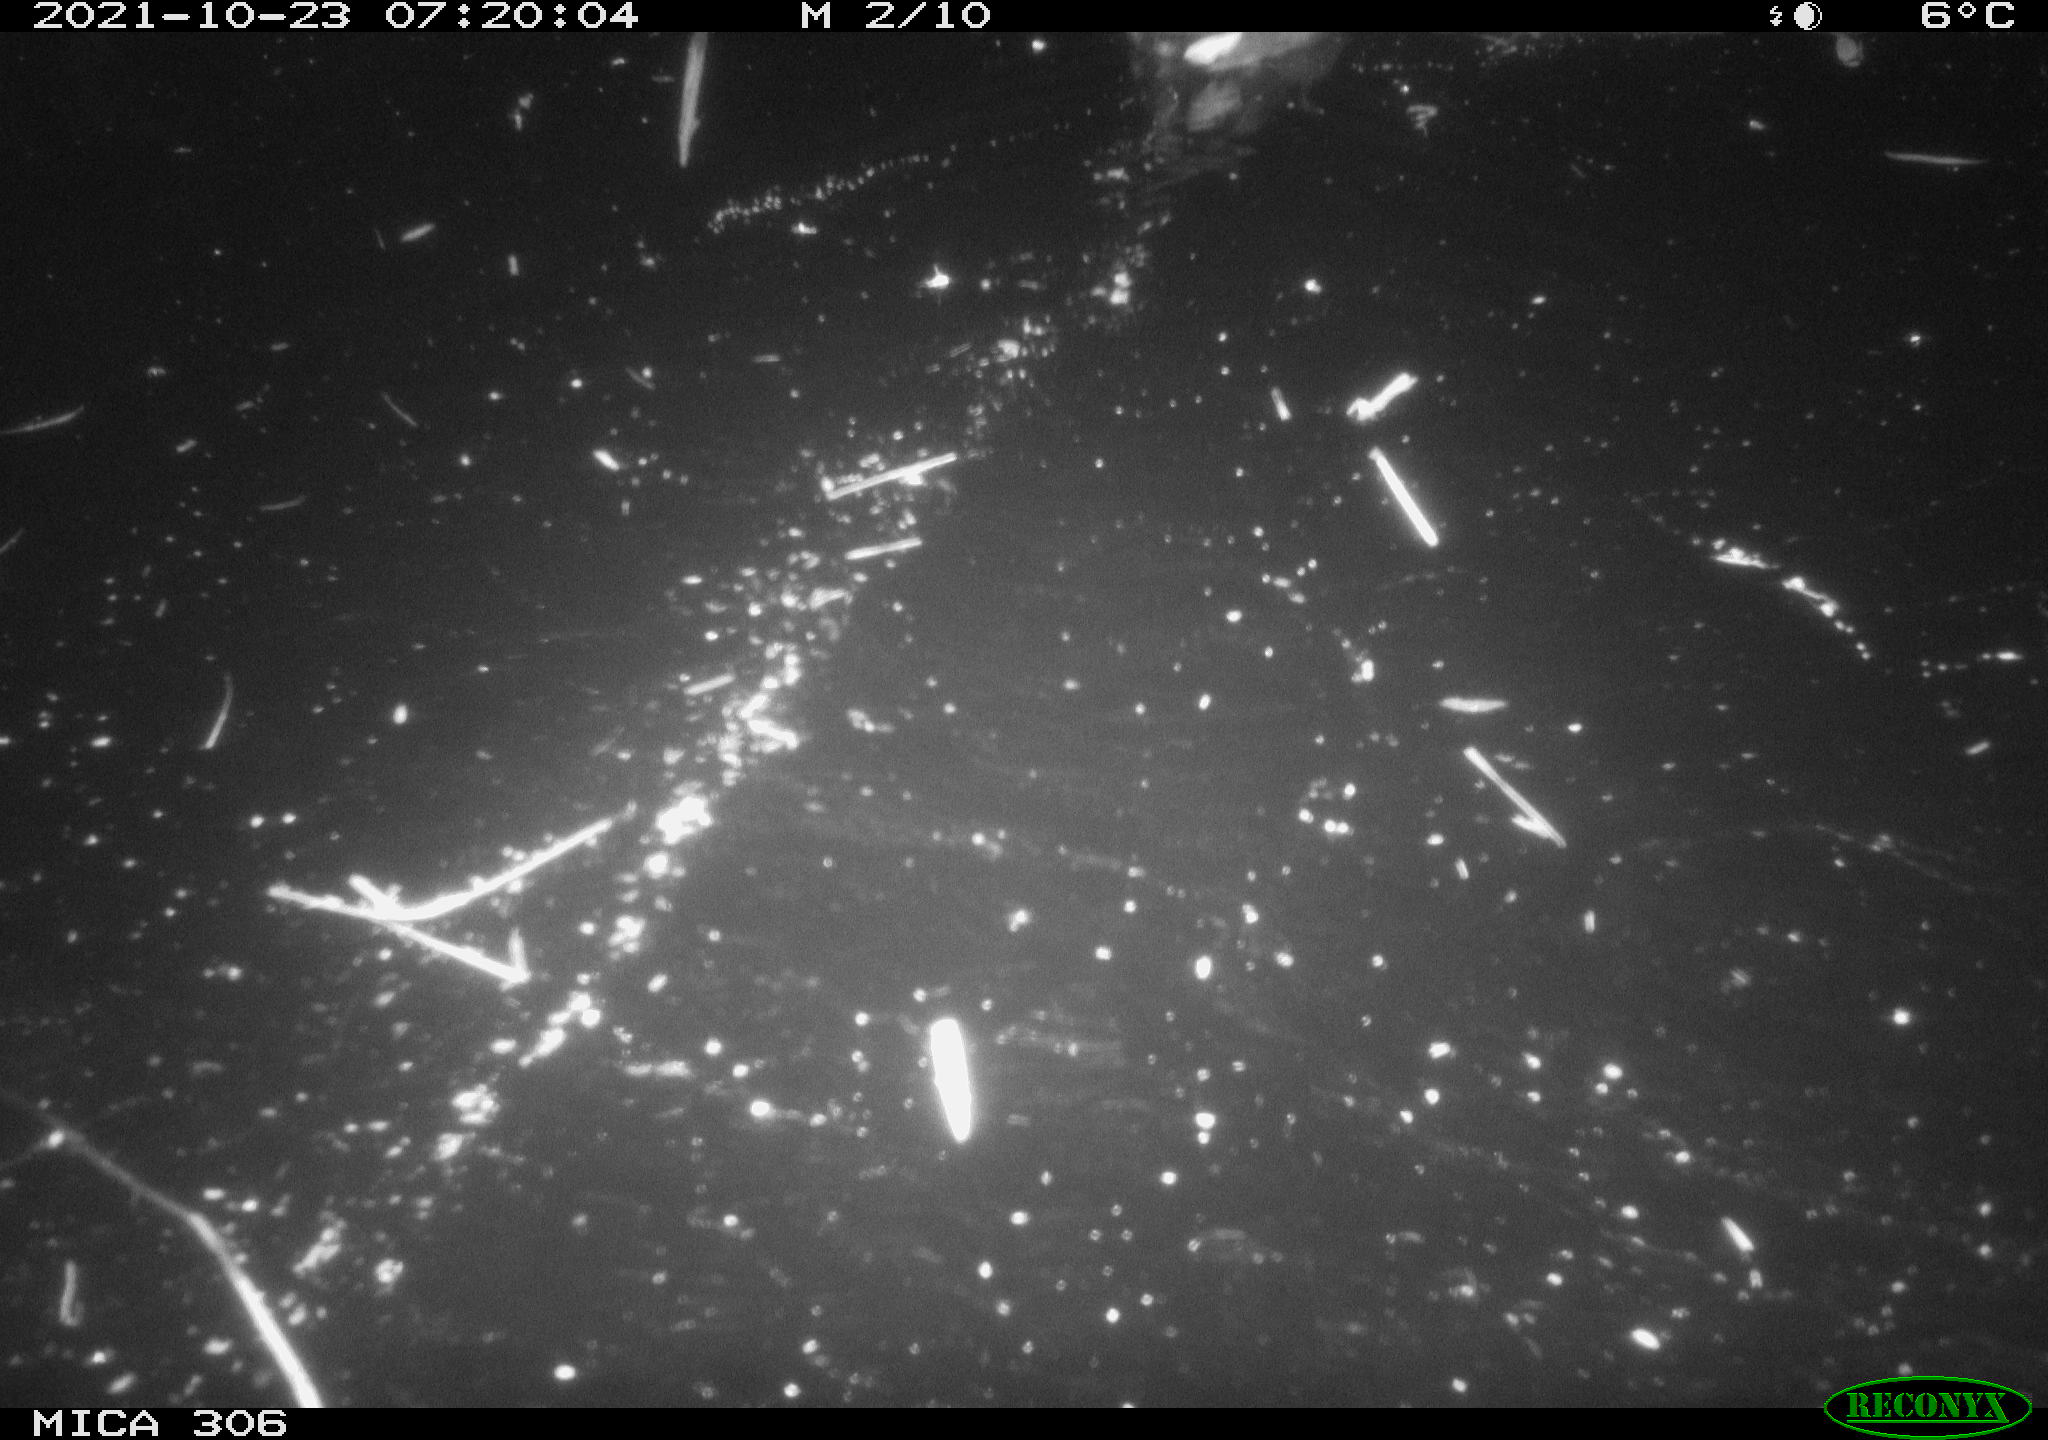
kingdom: Animalia
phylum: Chordata
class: Aves
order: Gruiformes
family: Rallidae
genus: Gallinula
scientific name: Gallinula chloropus
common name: Common moorhen
